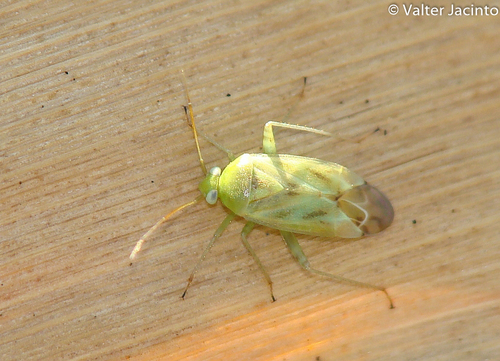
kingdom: Animalia
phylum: Arthropoda
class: Insecta
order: Hemiptera
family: Miridae
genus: Taylorilygus
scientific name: Taylorilygus apicalis
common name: Plant bug
